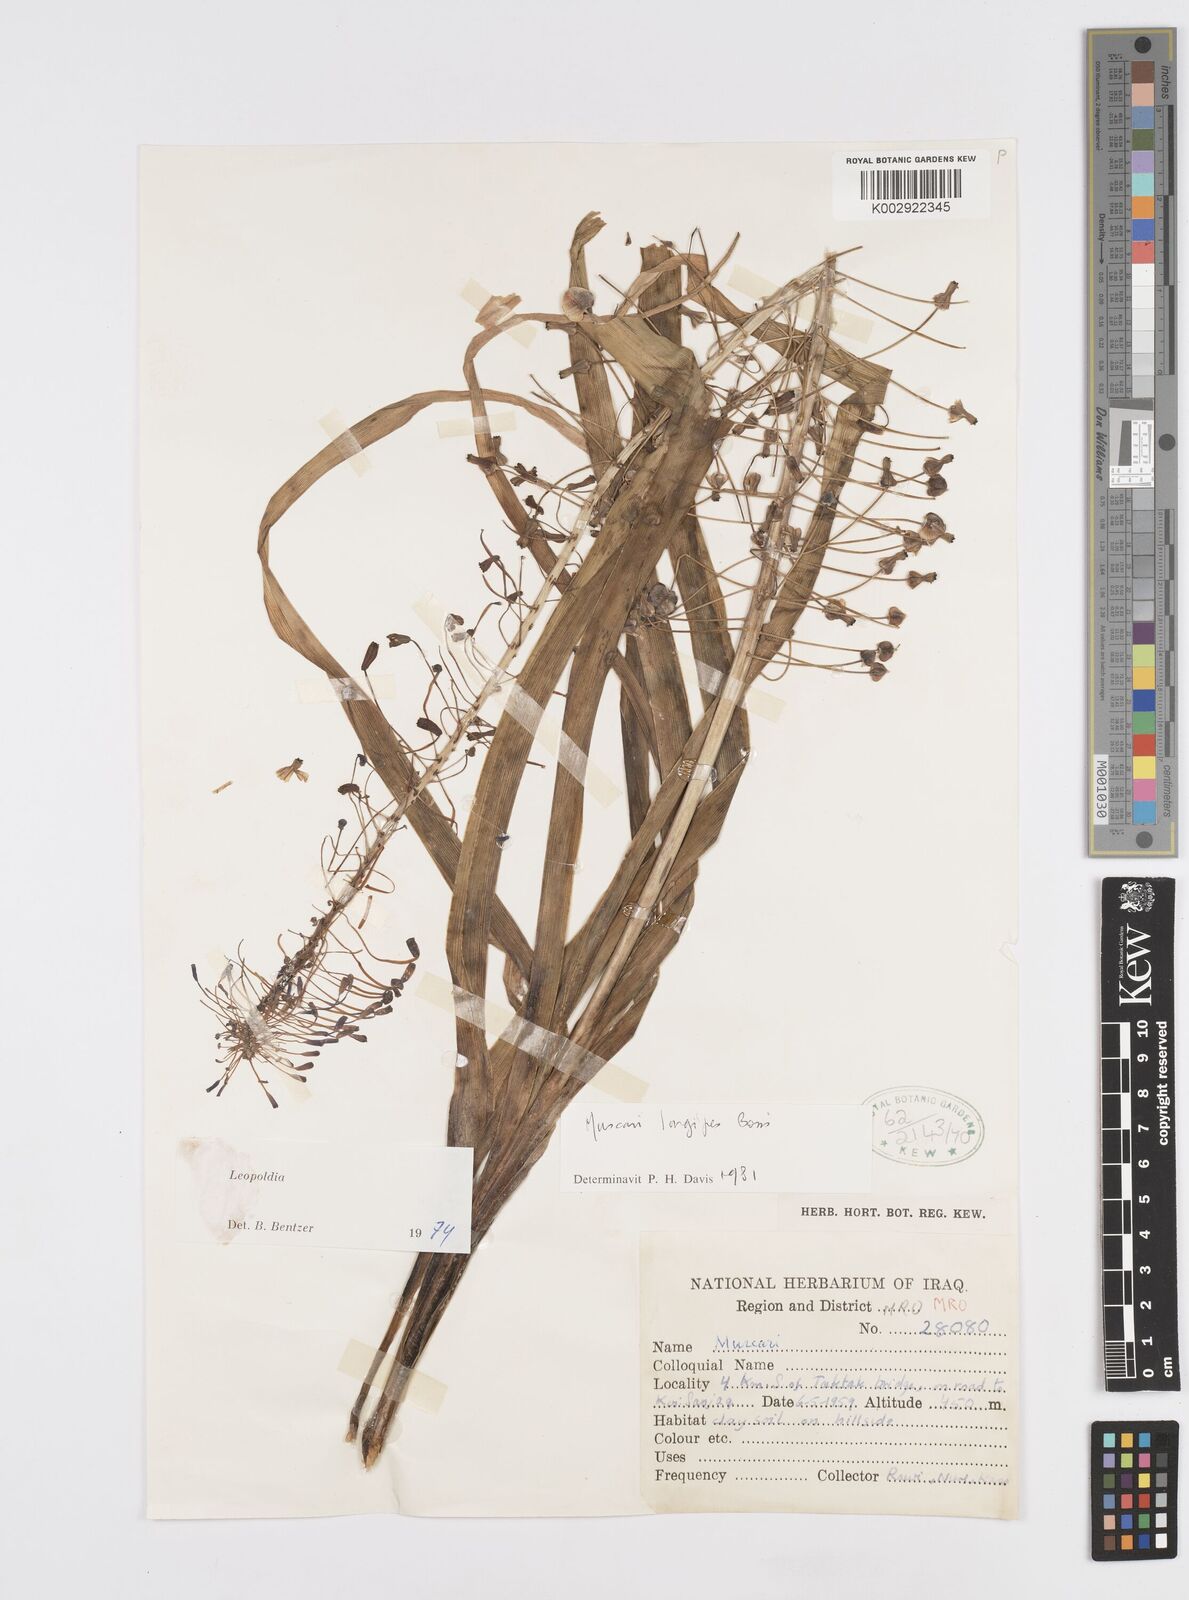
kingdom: Plantae
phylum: Tracheophyta
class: Liliopsida
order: Asparagales
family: Asparagaceae
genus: Muscari
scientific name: Muscari longipes
